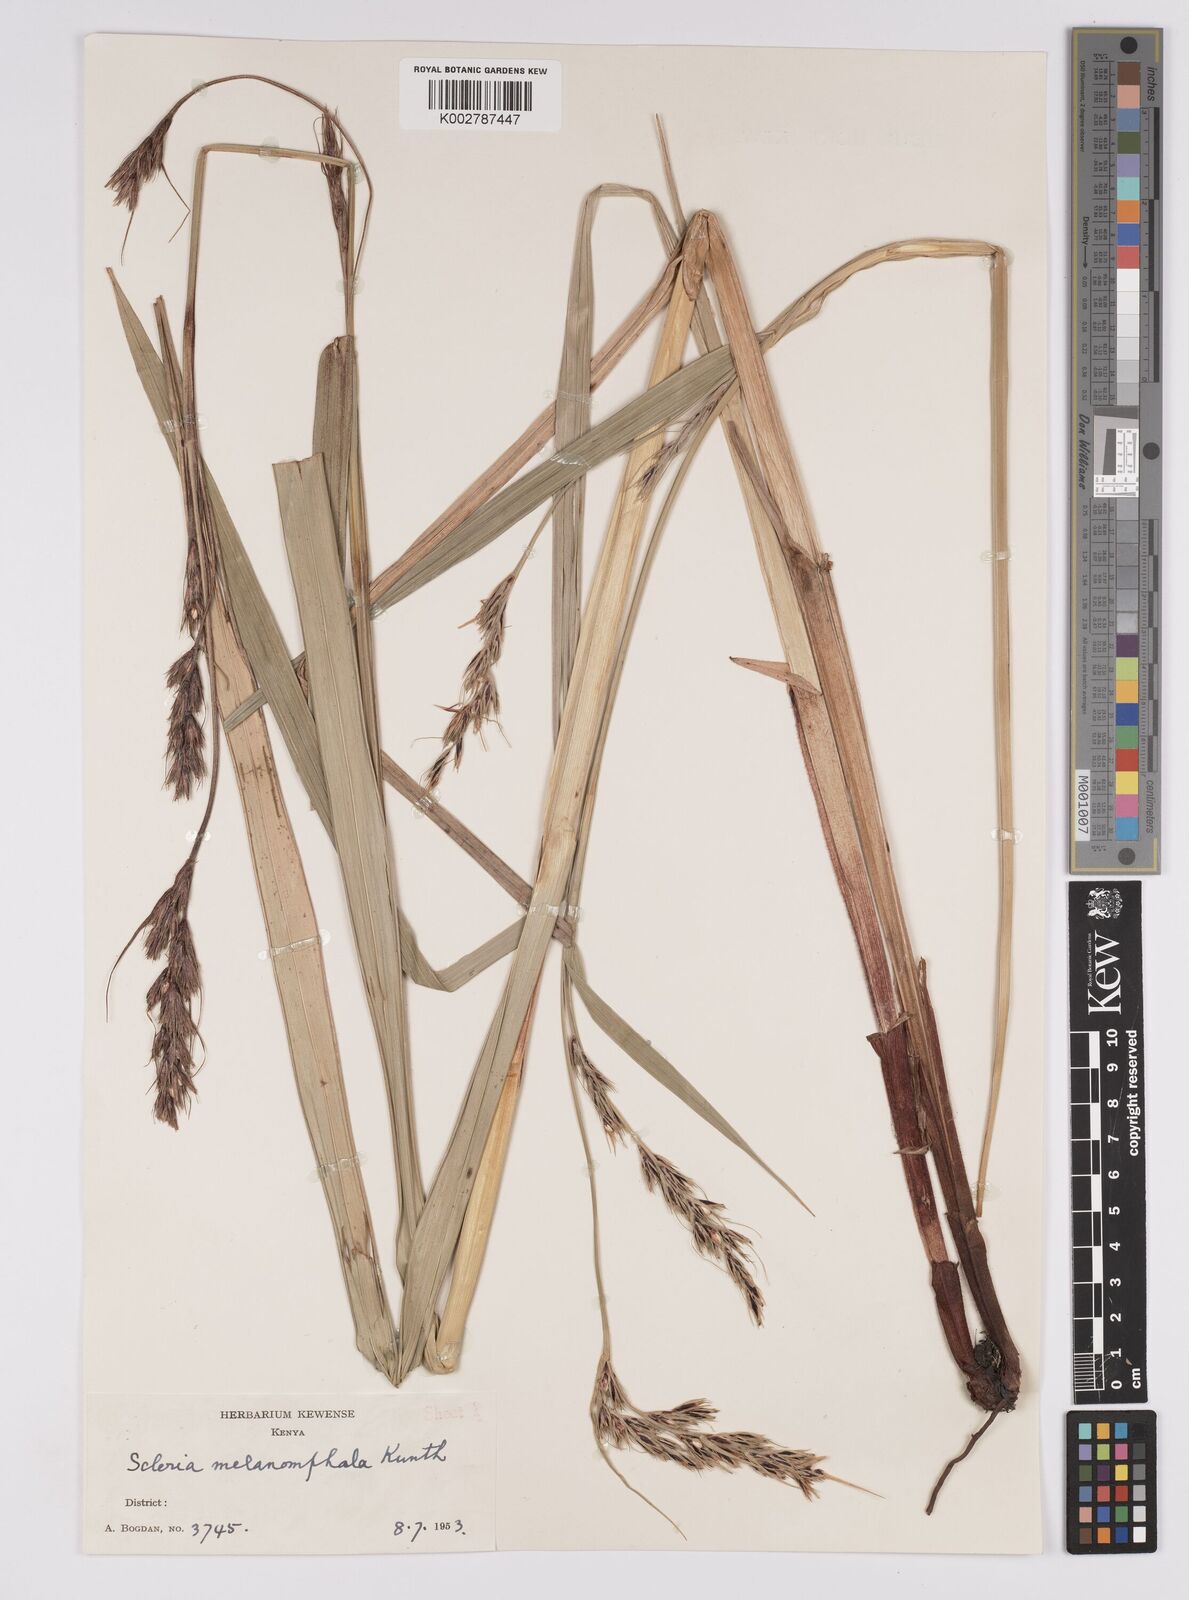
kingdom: Plantae
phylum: Tracheophyta
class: Liliopsida
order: Poales
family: Cyperaceae
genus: Scleria
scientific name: Scleria melanomphala
